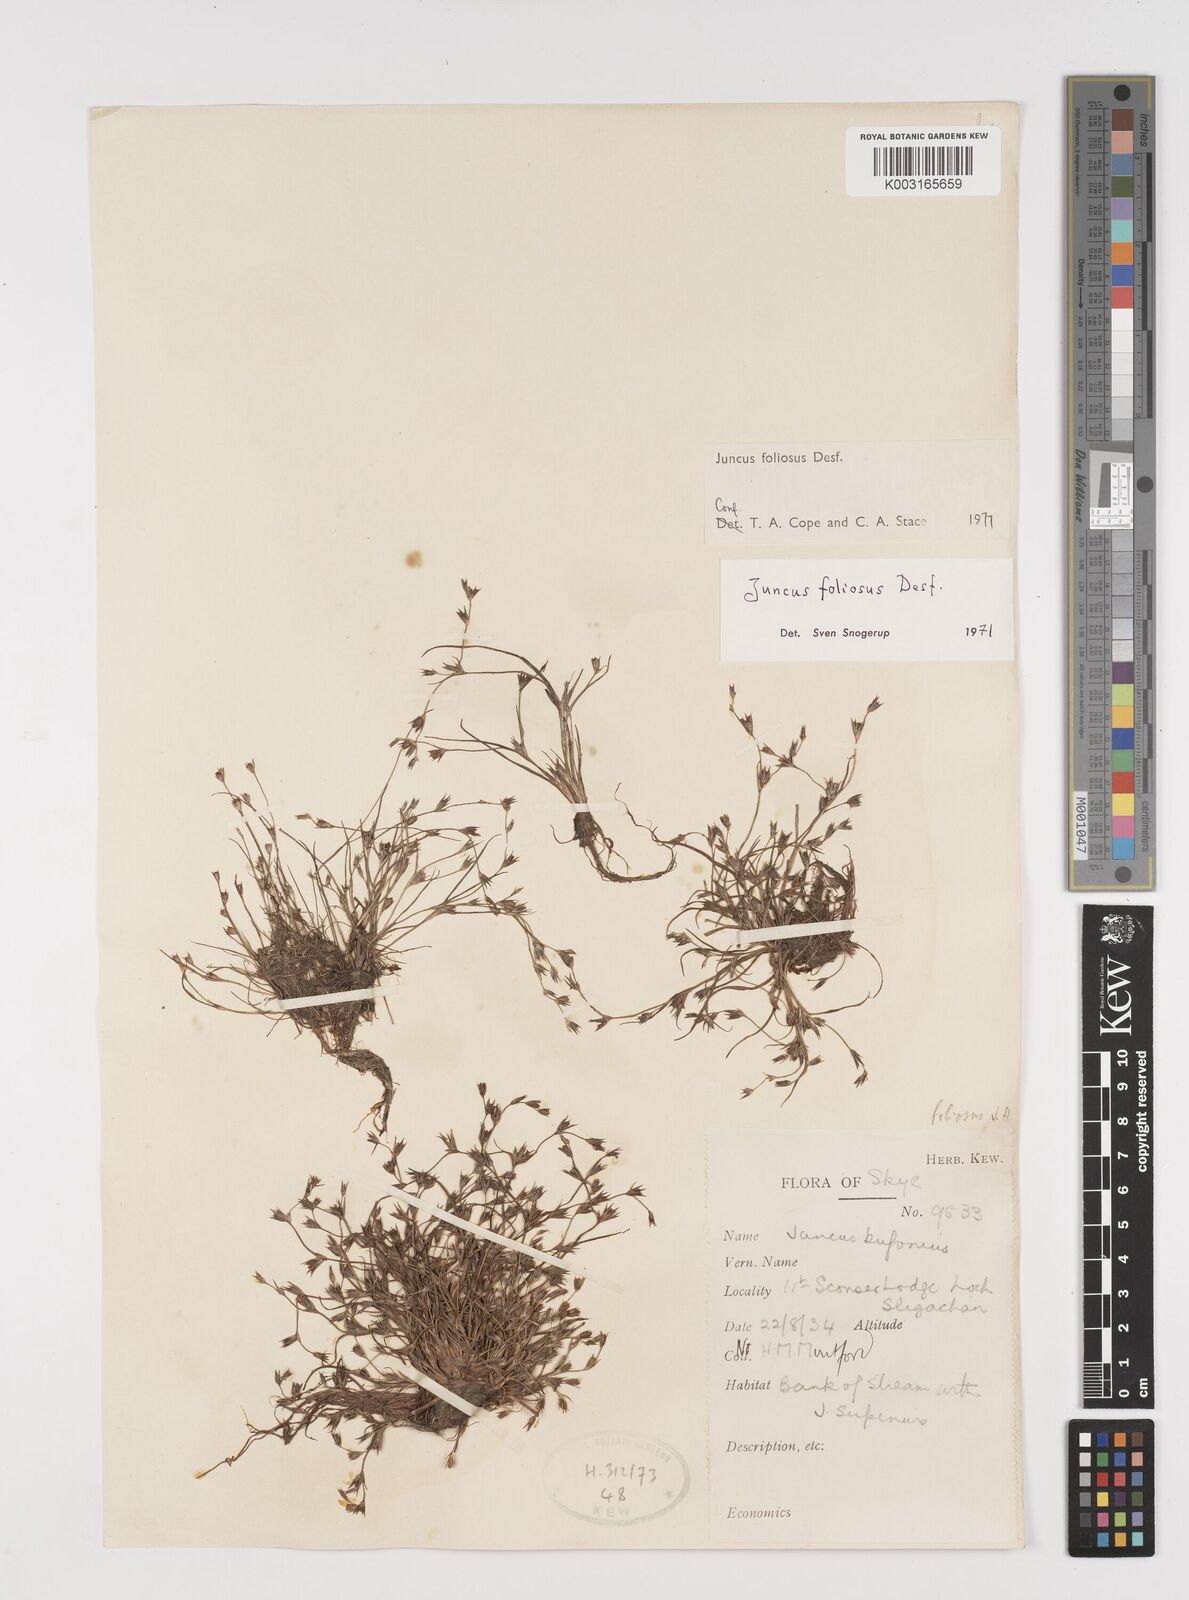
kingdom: Plantae
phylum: Tracheophyta
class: Liliopsida
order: Poales
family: Juncaceae
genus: Juncus
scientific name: Juncus foliosus
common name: Leafy rush
